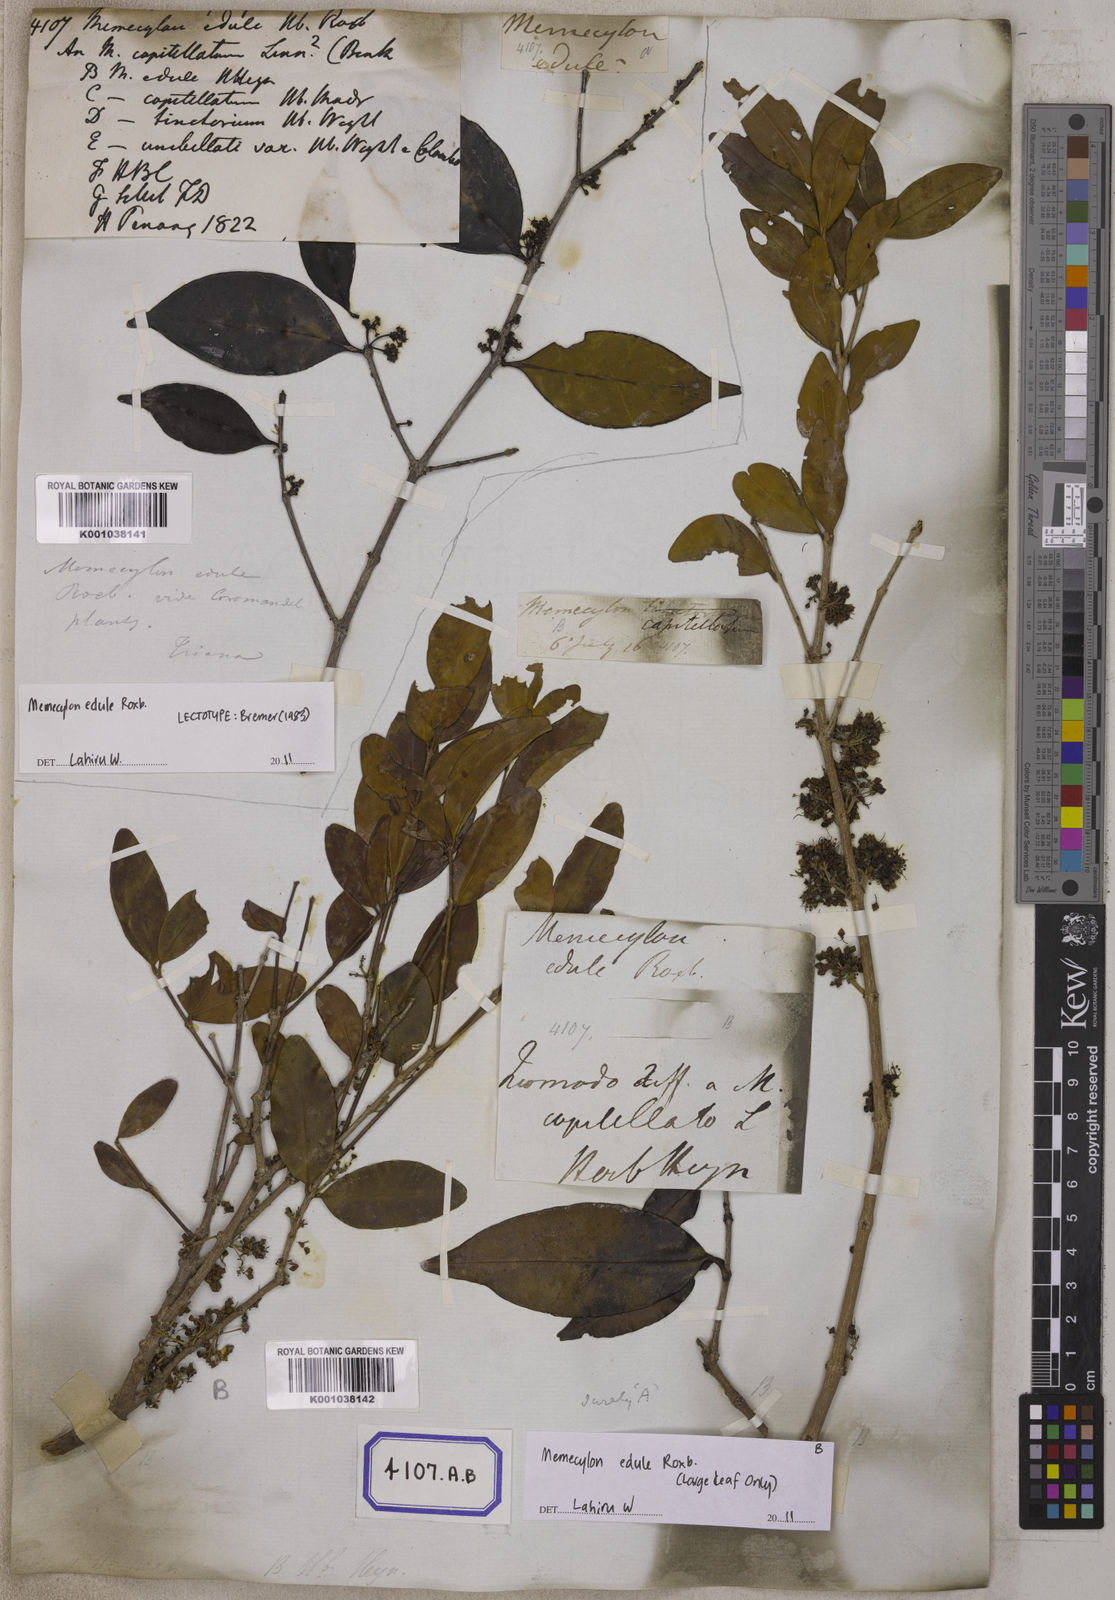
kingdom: Plantae
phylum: Tracheophyta
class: Magnoliopsida
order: Myrtales
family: Melastomataceae
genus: Memecylon
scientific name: Memecylon edule
